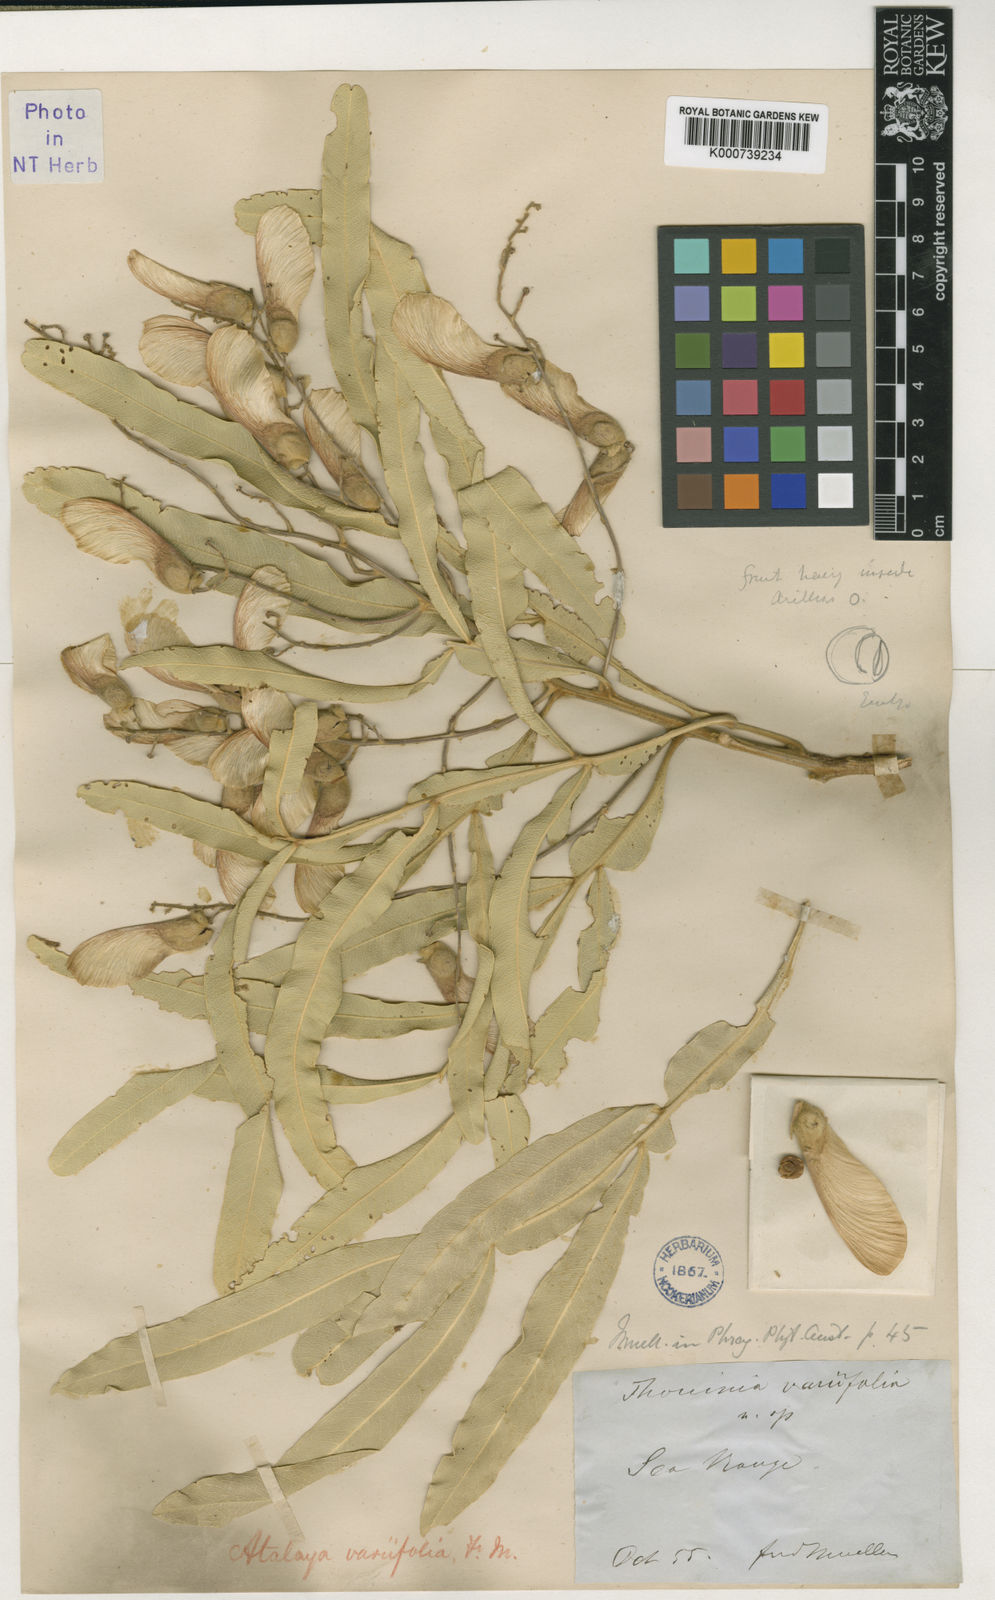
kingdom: Plantae
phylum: Tracheophyta
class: Magnoliopsida
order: Sapindales
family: Sapindaceae
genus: Atalaya
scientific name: Atalaya variifolia
